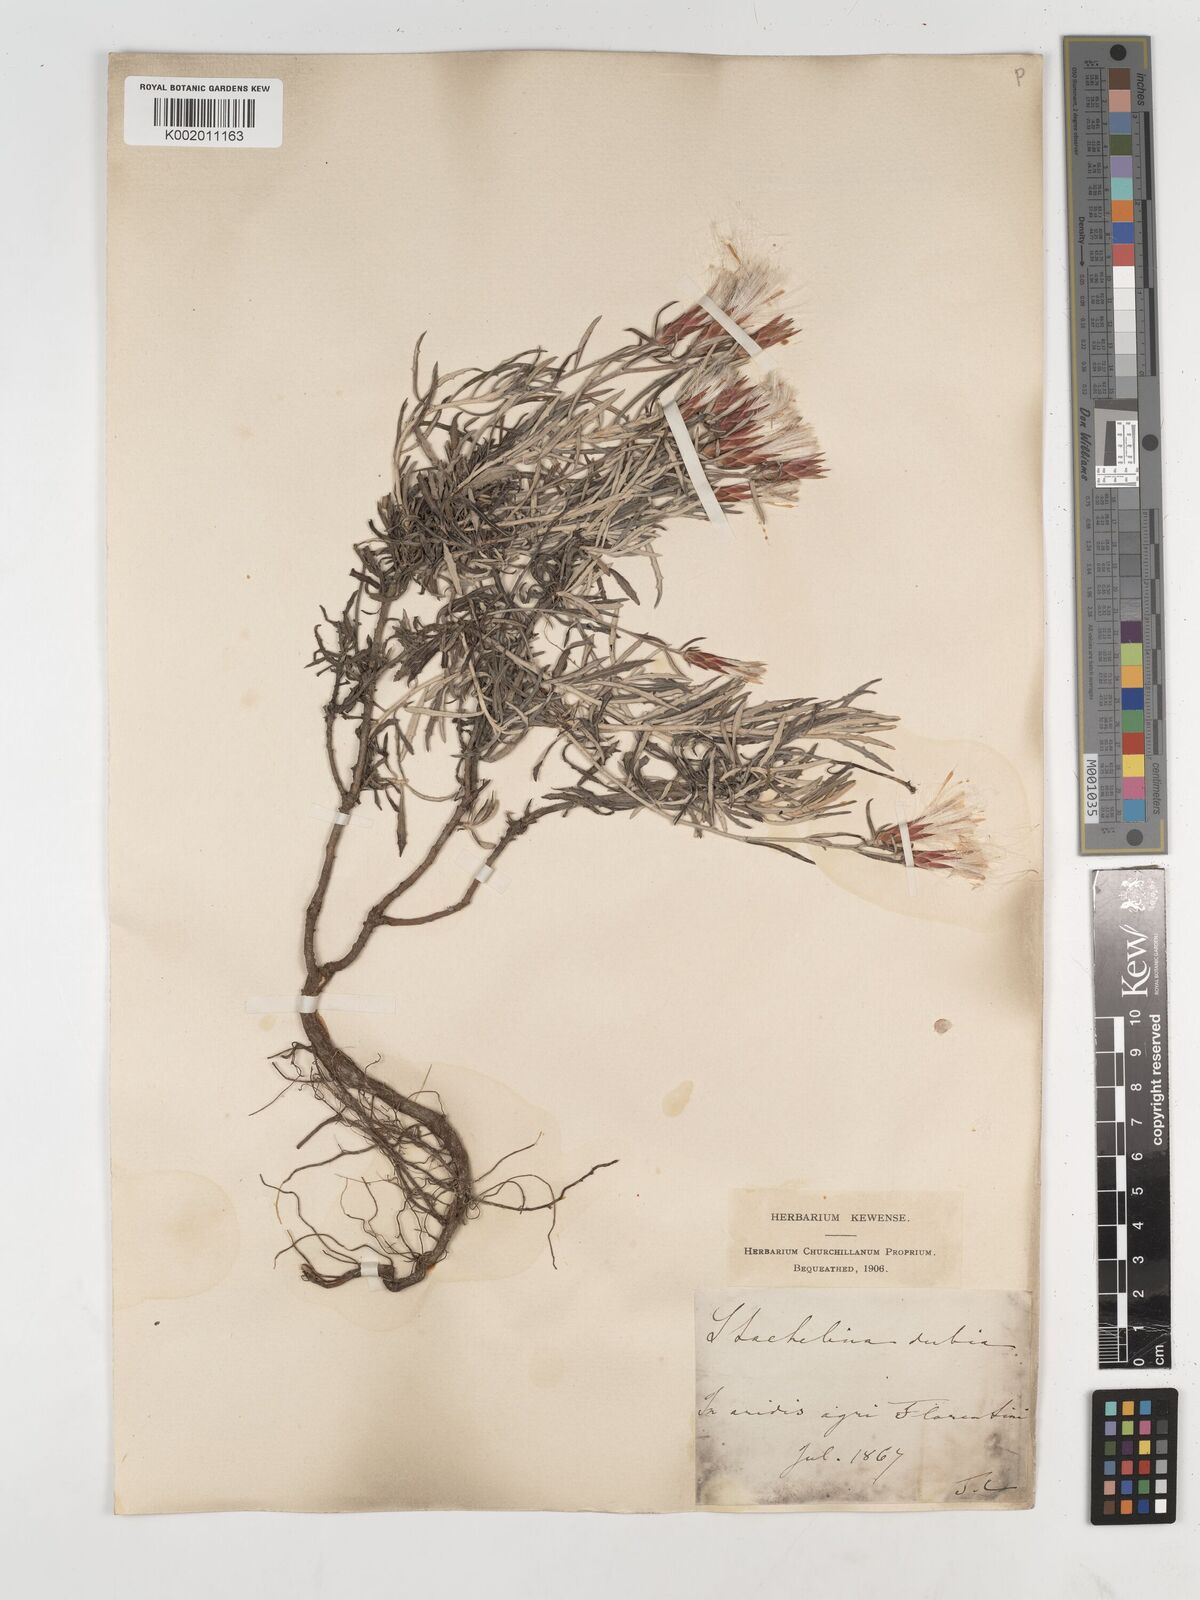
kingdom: Plantae
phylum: Tracheophyta
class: Magnoliopsida
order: Asterales
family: Asteraceae
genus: Staehelina
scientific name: Staehelina dubia
